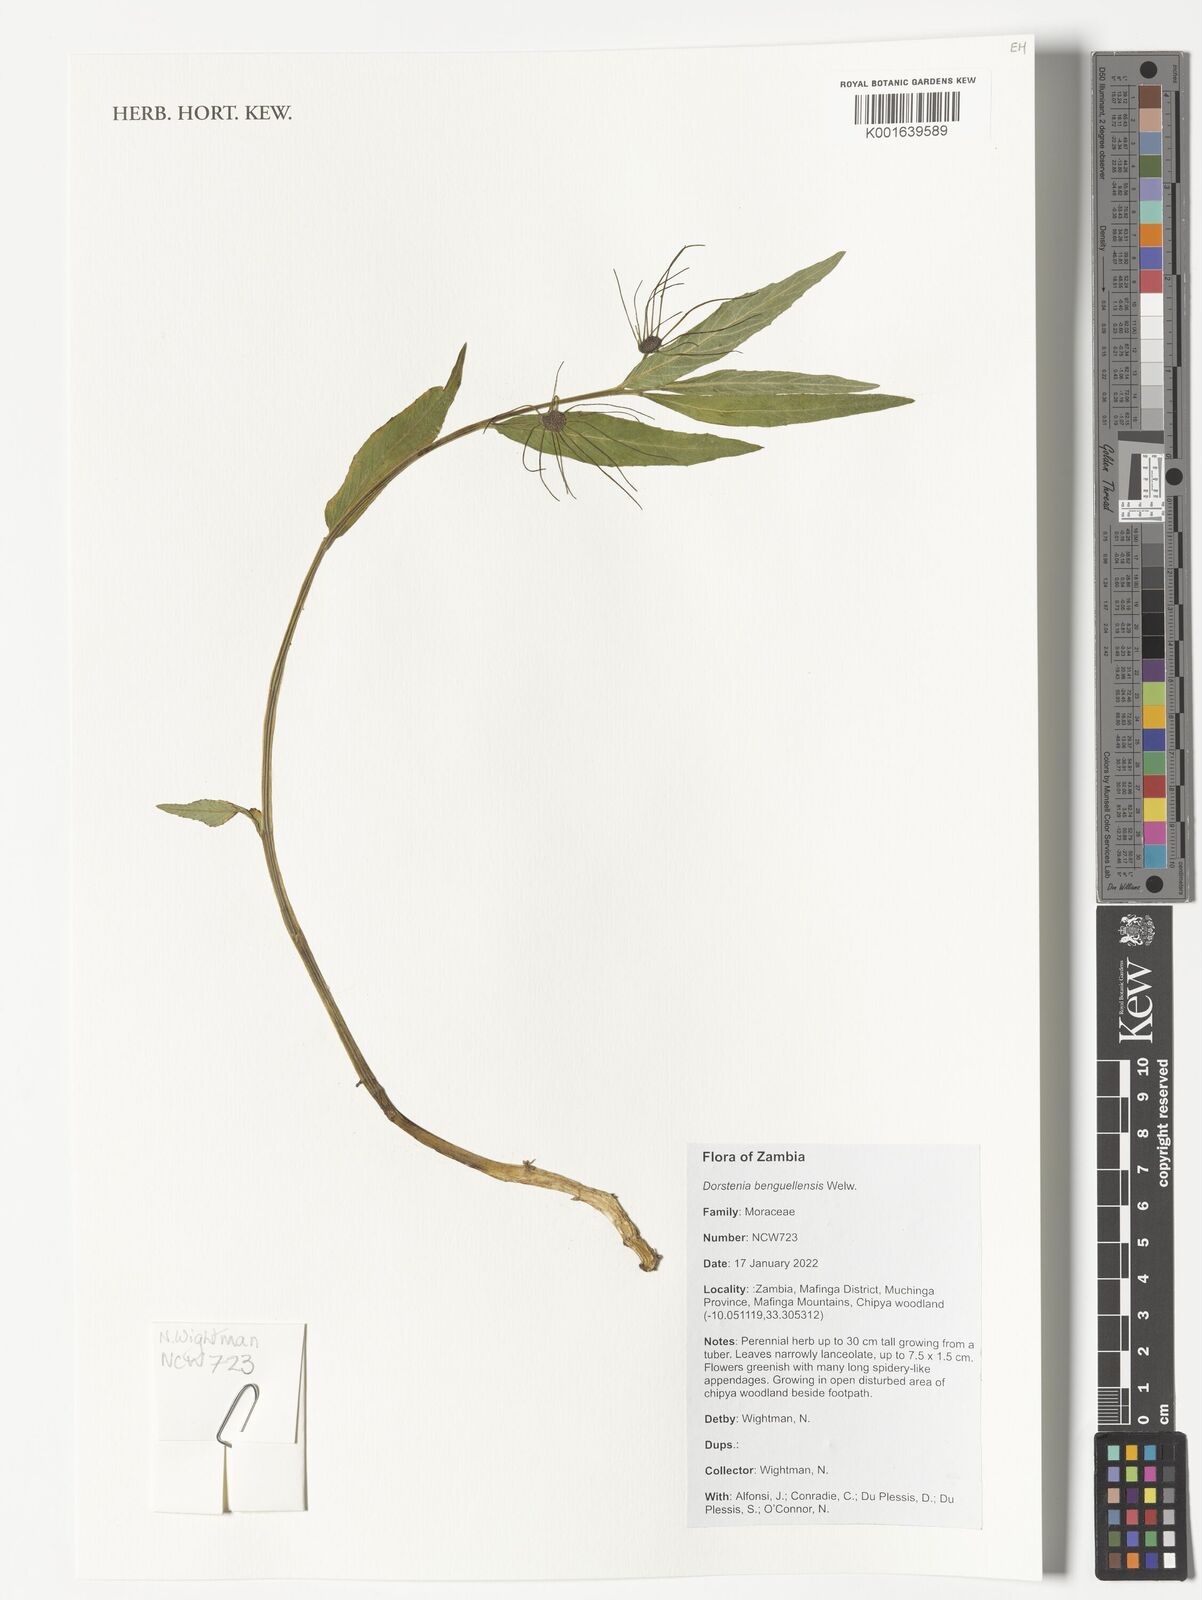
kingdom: Plantae
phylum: Tracheophyta
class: Magnoliopsida
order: Rosales
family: Moraceae
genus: Dorstenia
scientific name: Dorstenia benguellensis
